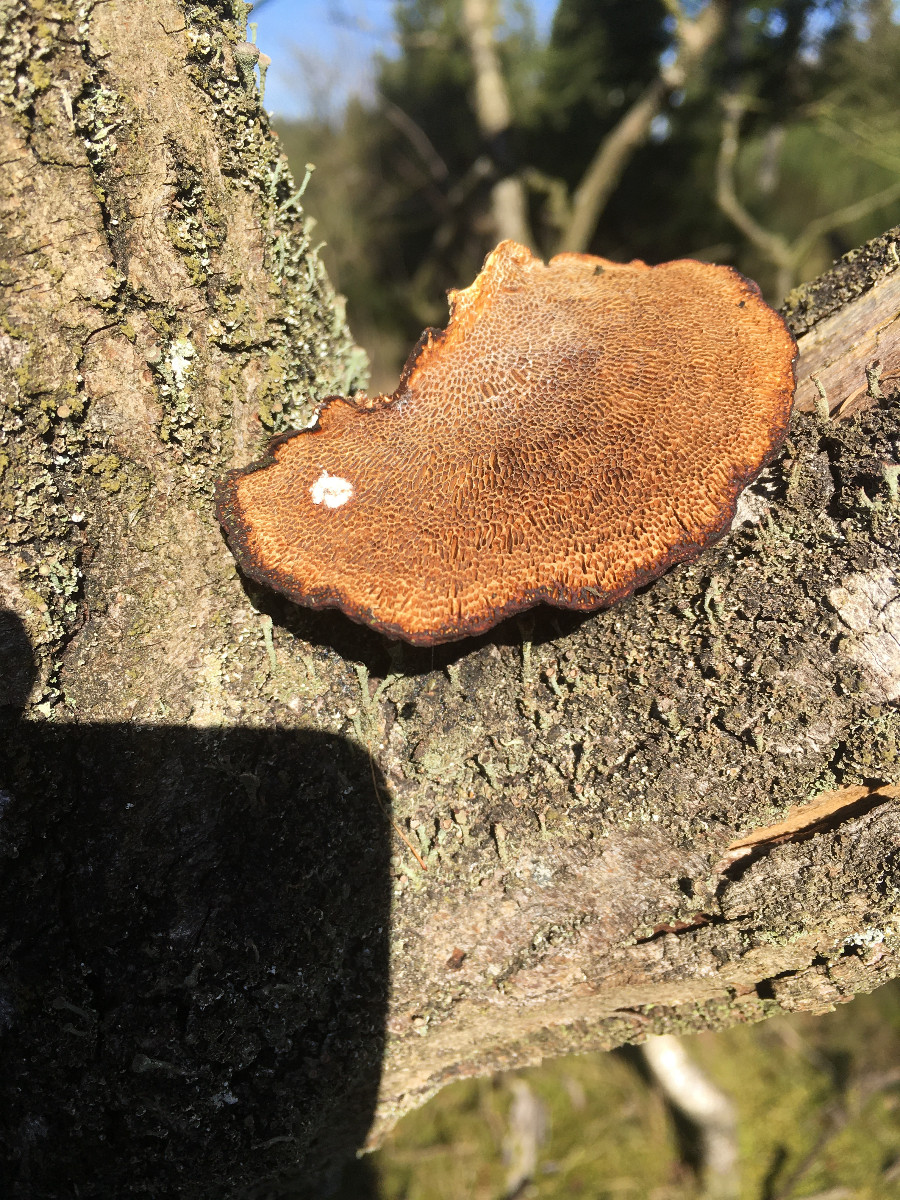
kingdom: Fungi
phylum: Basidiomycota
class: Agaricomycetes
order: Polyporales
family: Polyporaceae
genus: Daedaleopsis
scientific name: Daedaleopsis confragosa
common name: rødmende læderporesvamp
